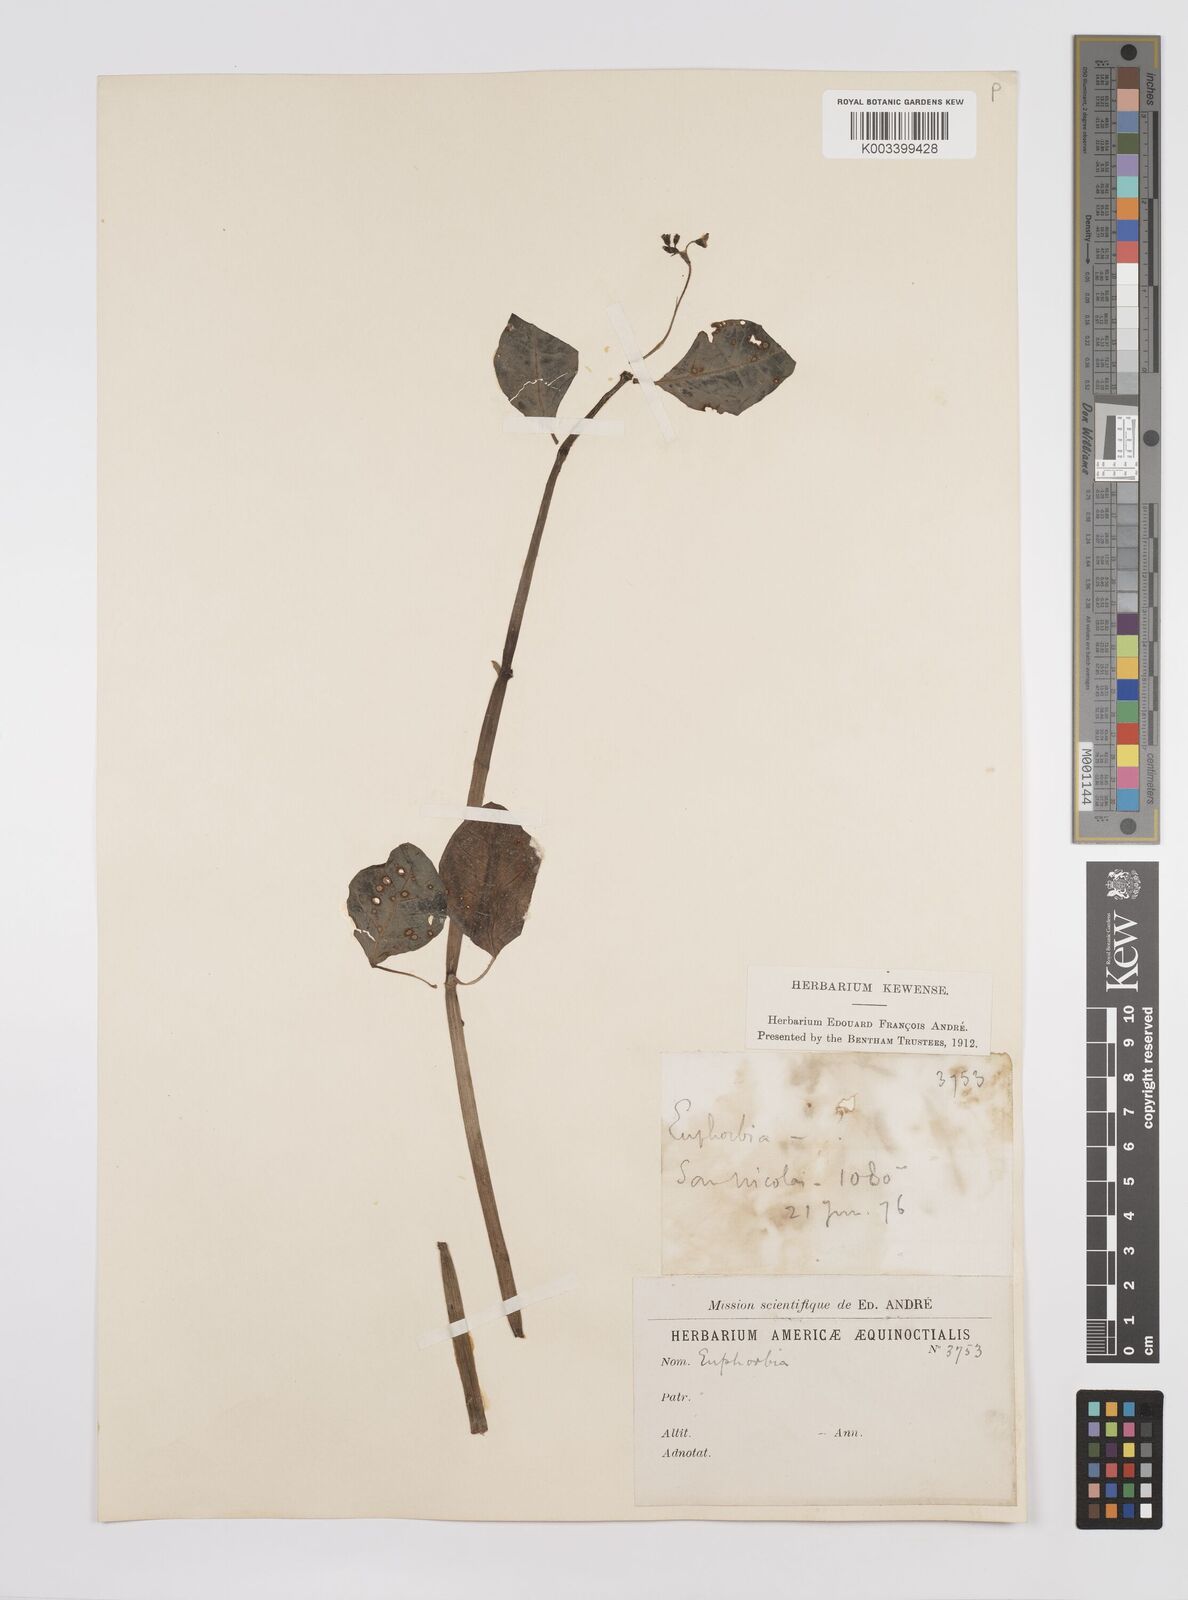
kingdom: Plantae
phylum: Tracheophyta
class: Magnoliopsida
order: Malpighiales
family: Euphorbiaceae
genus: Euphorbia
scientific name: Euphorbia
